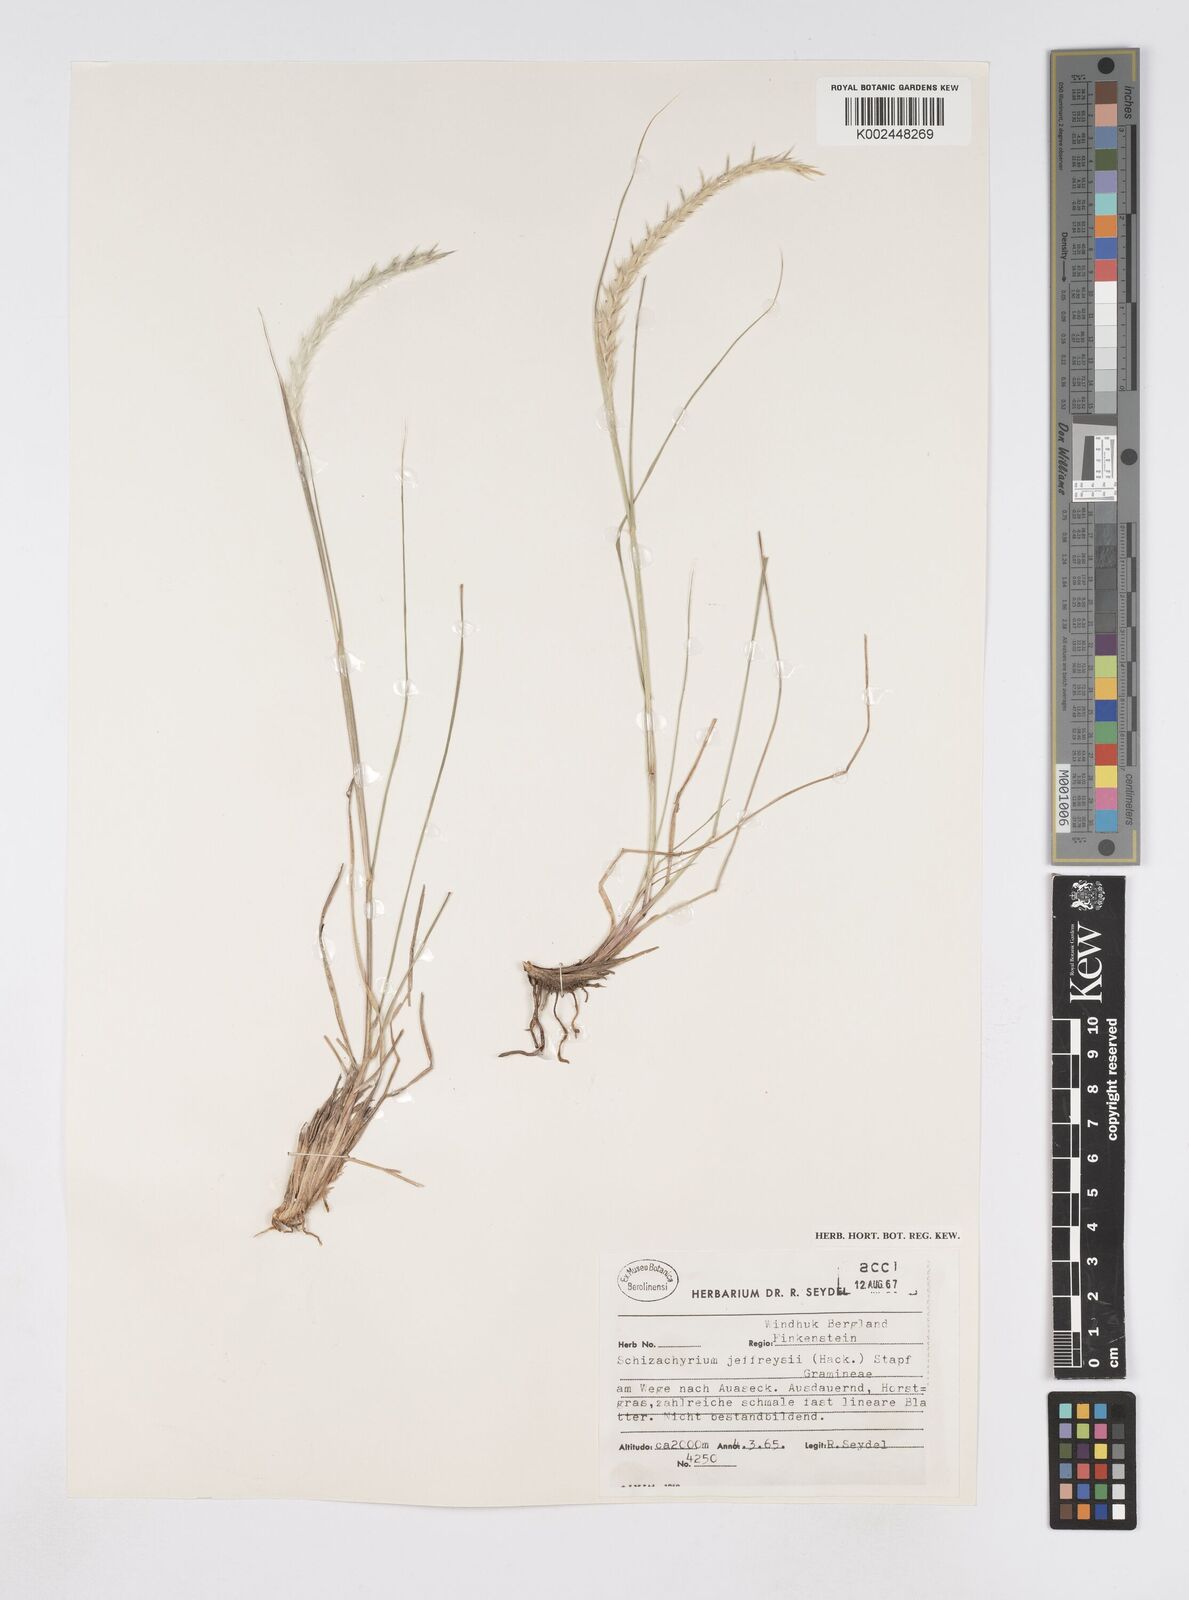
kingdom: Plantae
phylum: Tracheophyta
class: Liliopsida
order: Poales
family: Poaceae
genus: Elionurus
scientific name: Elionurus muticus
